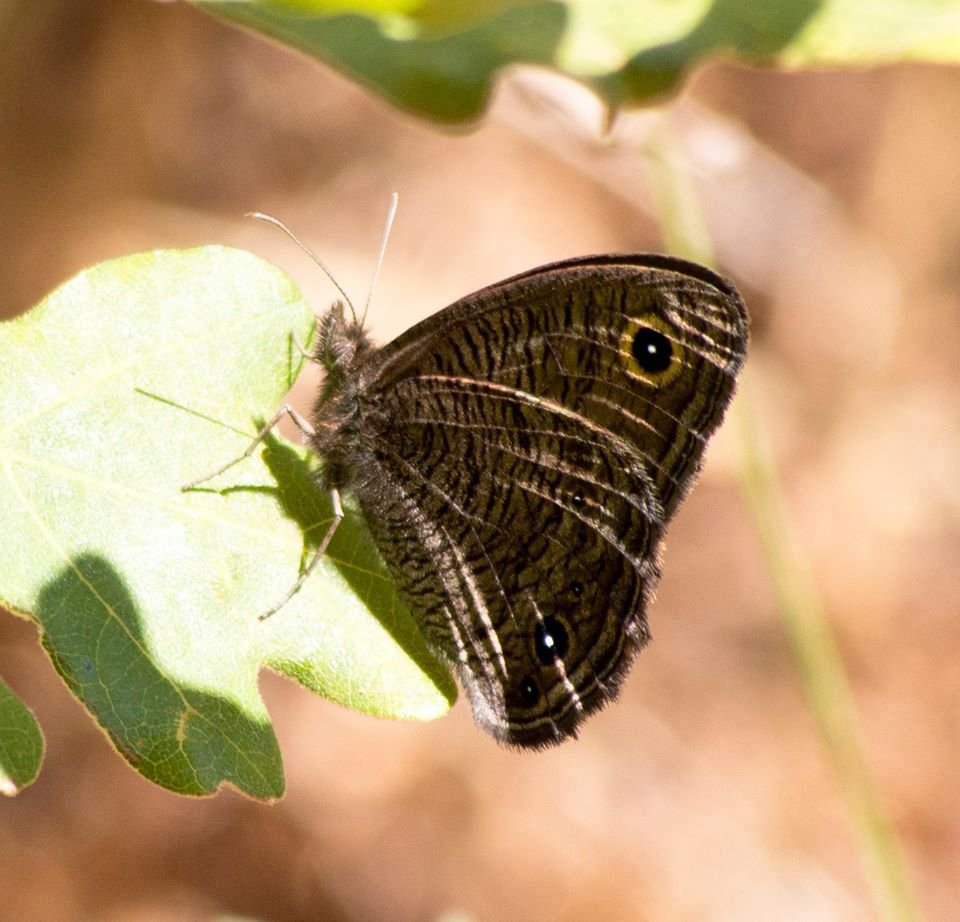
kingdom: Animalia
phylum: Arthropoda
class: Insecta
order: Lepidoptera
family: Nymphalidae
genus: Cercyonis
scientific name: Cercyonis sthenele
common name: Great Basin Wood-Nymph
